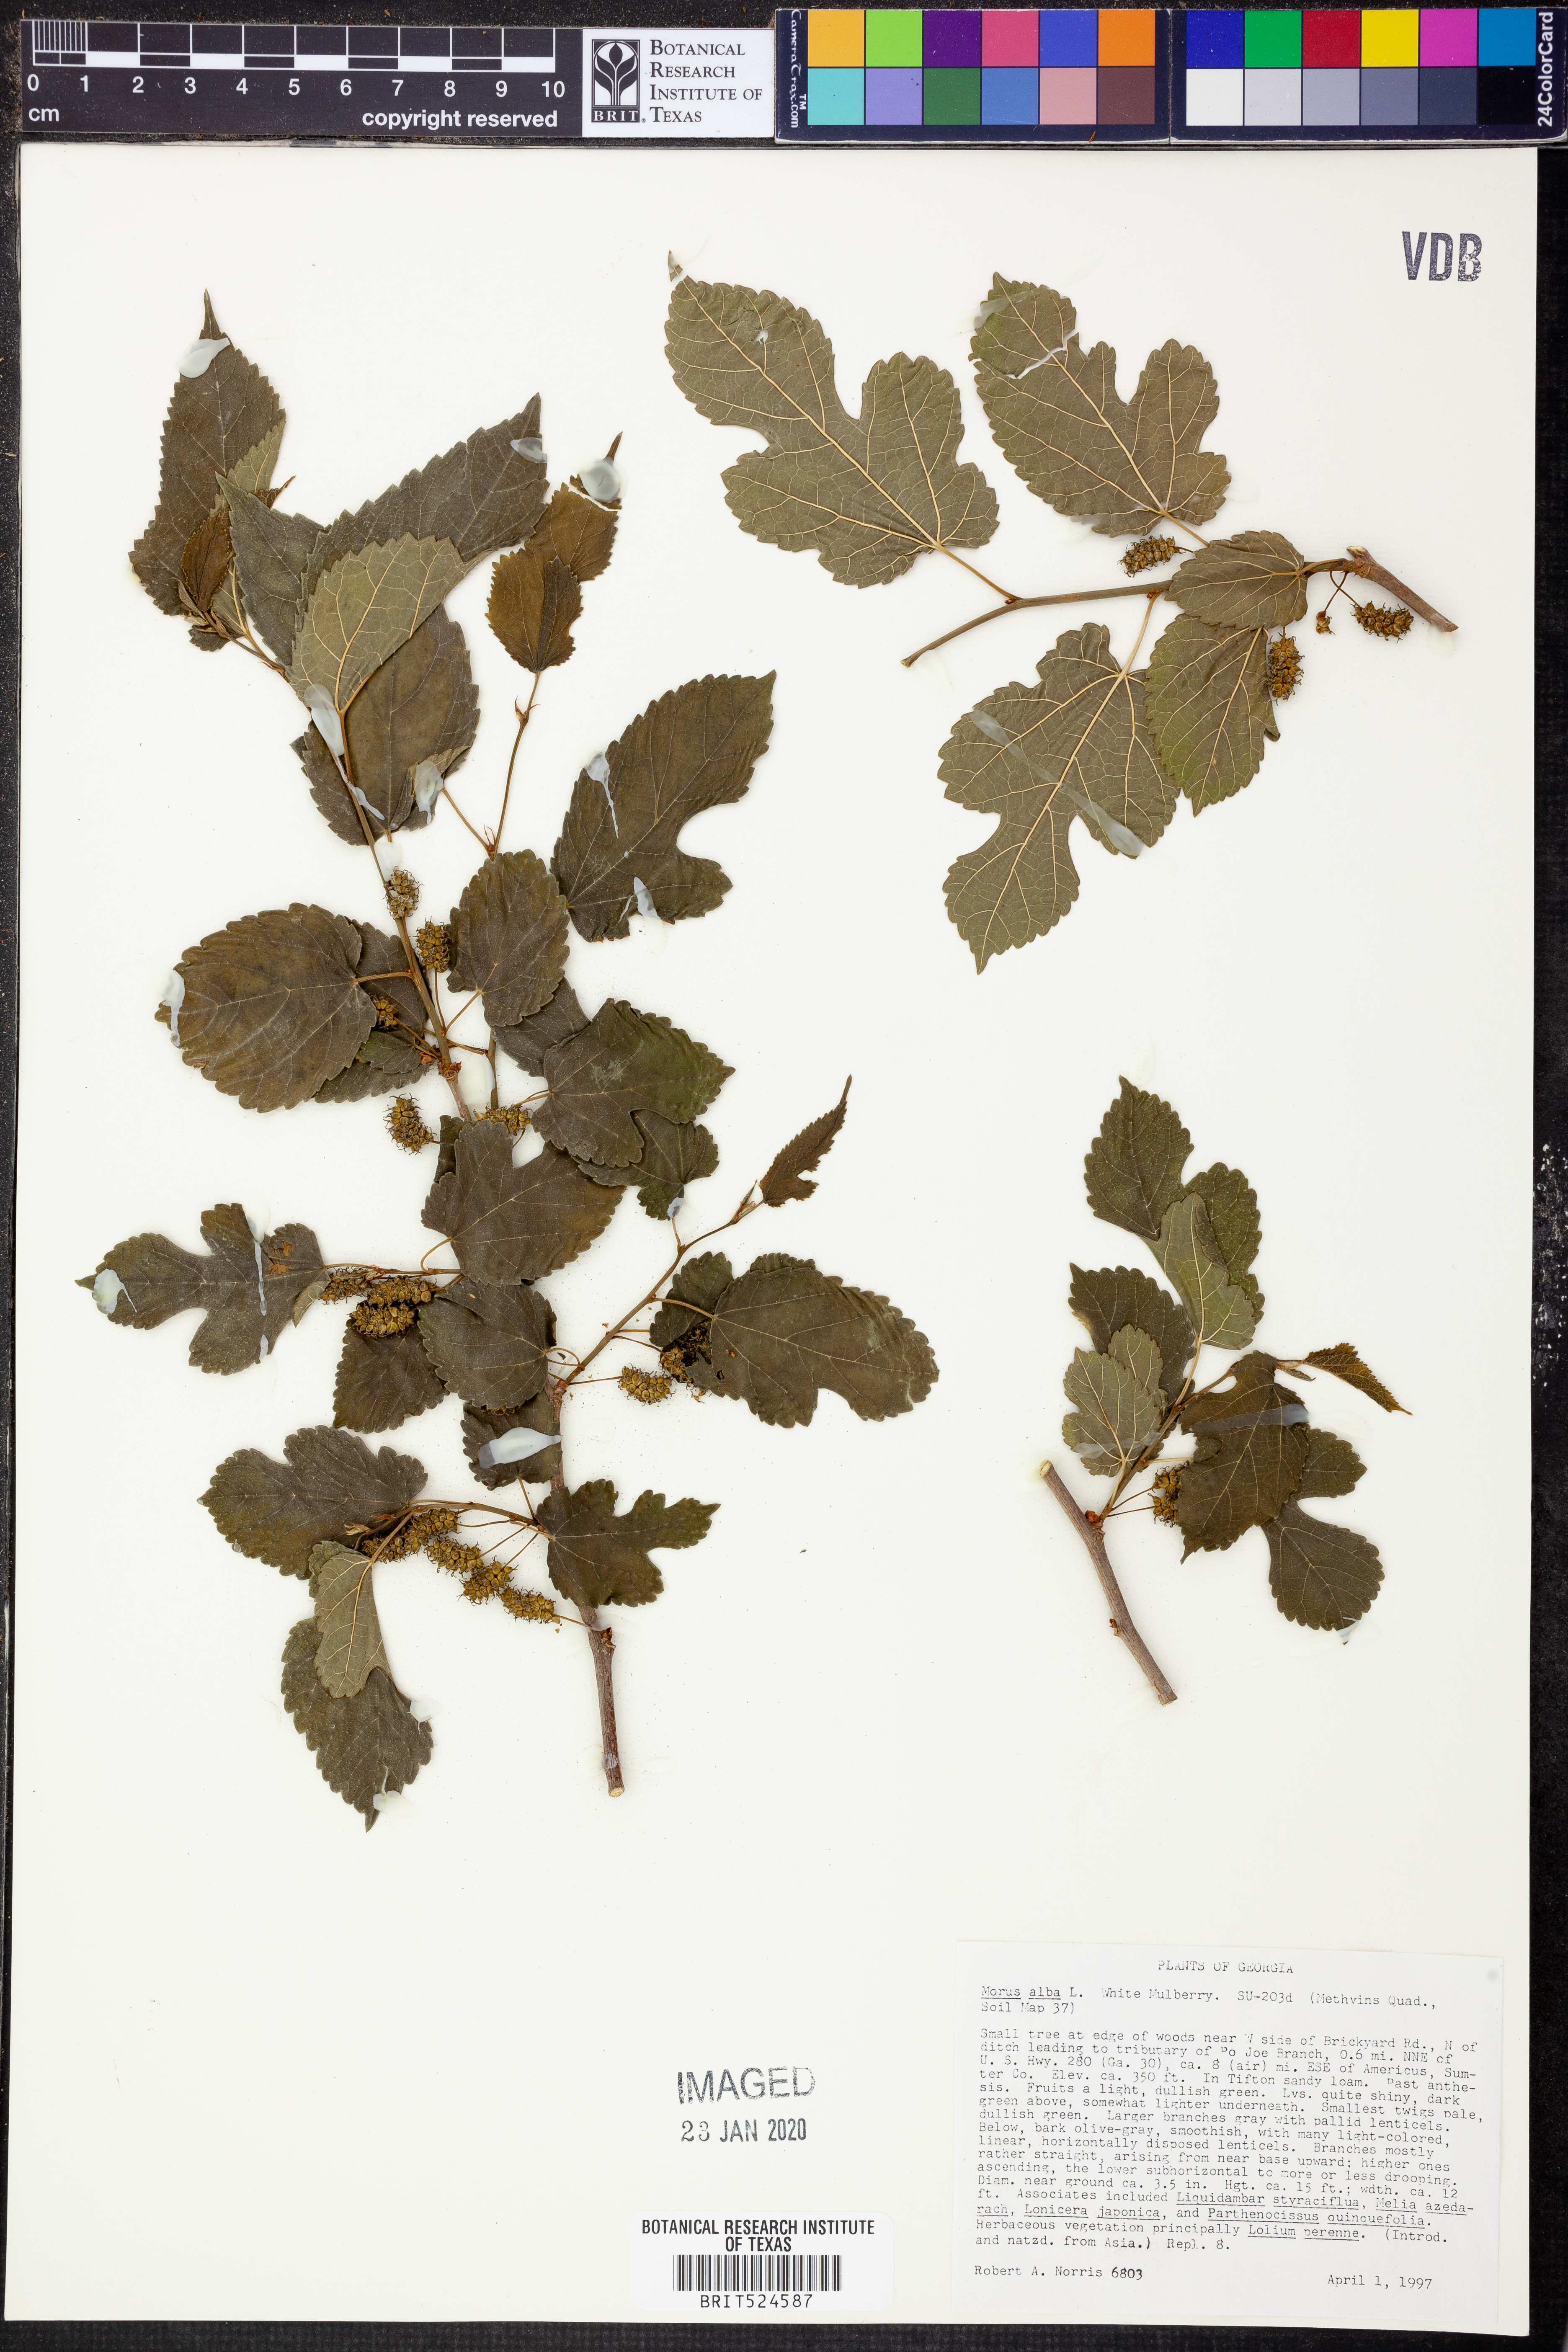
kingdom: Plantae
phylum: Tracheophyta
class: Magnoliopsida
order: Rosales
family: Moraceae
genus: Morus
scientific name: Morus alba
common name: White mulberry
